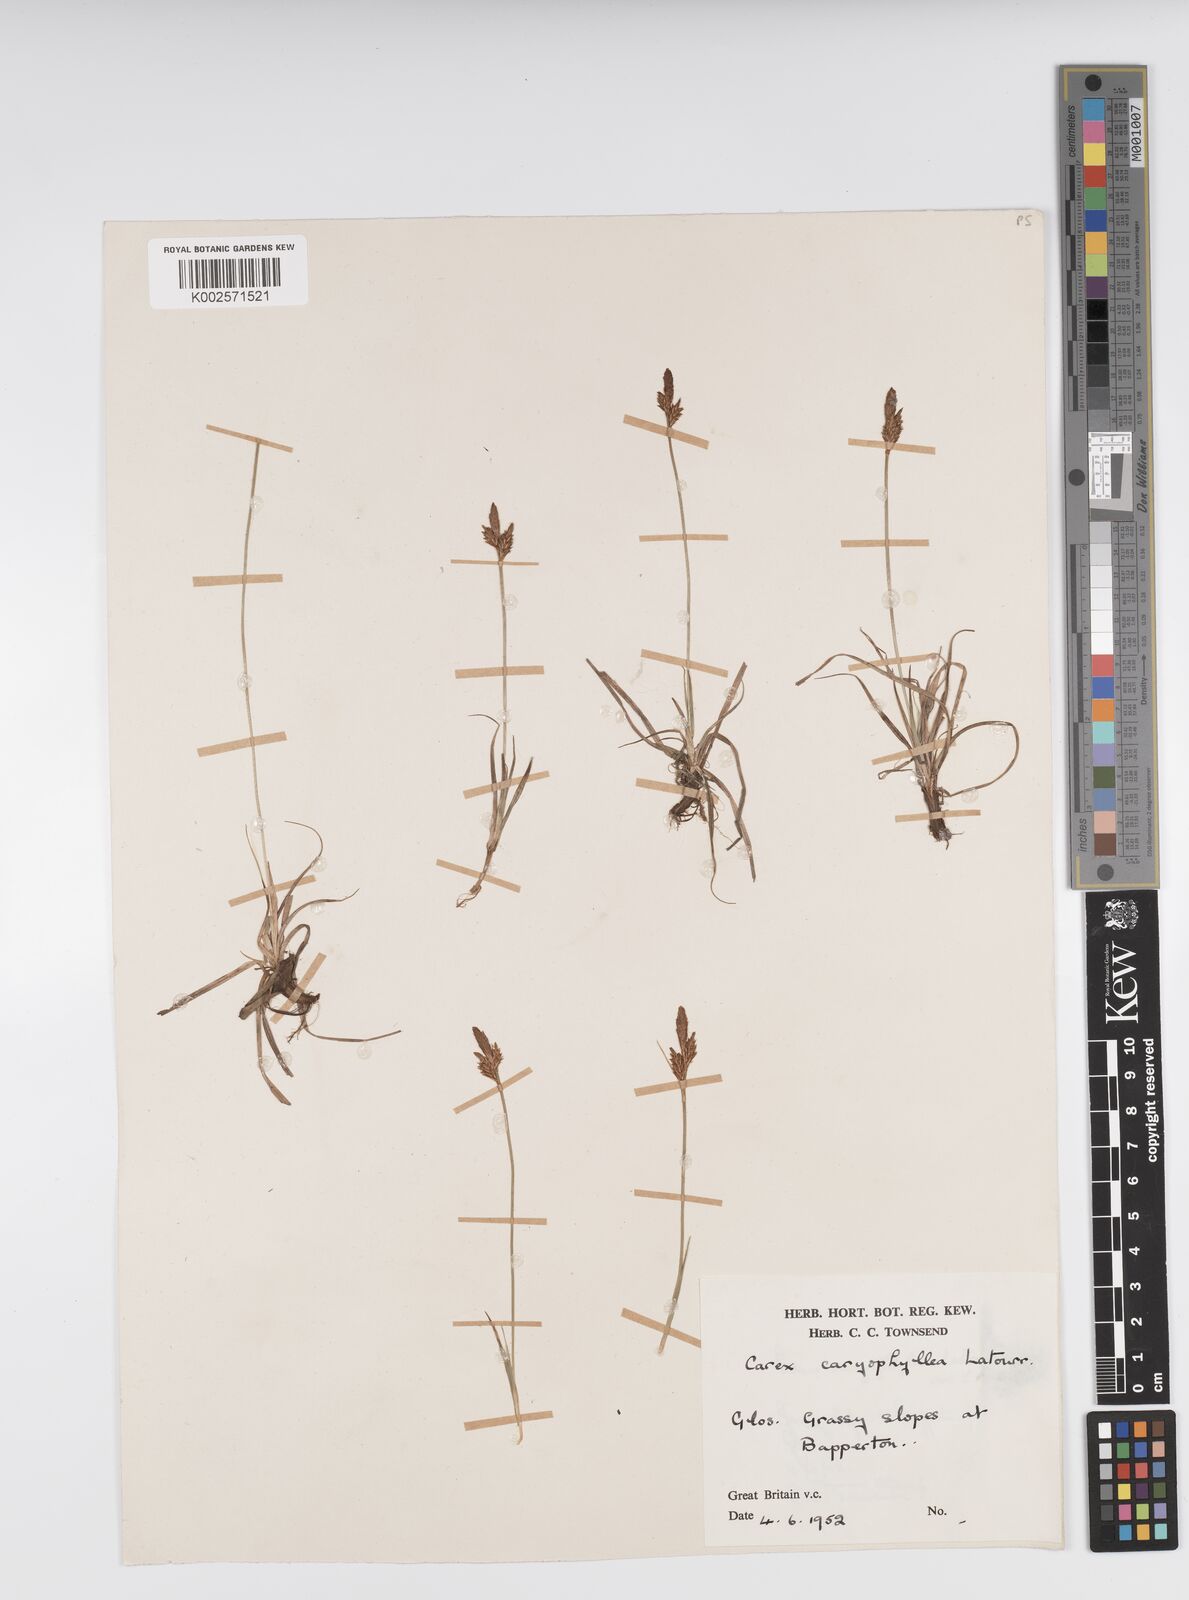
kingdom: Plantae
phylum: Tracheophyta
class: Liliopsida
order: Poales
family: Cyperaceae
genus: Carex
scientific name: Carex caryophyllea
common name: Spring sedge
